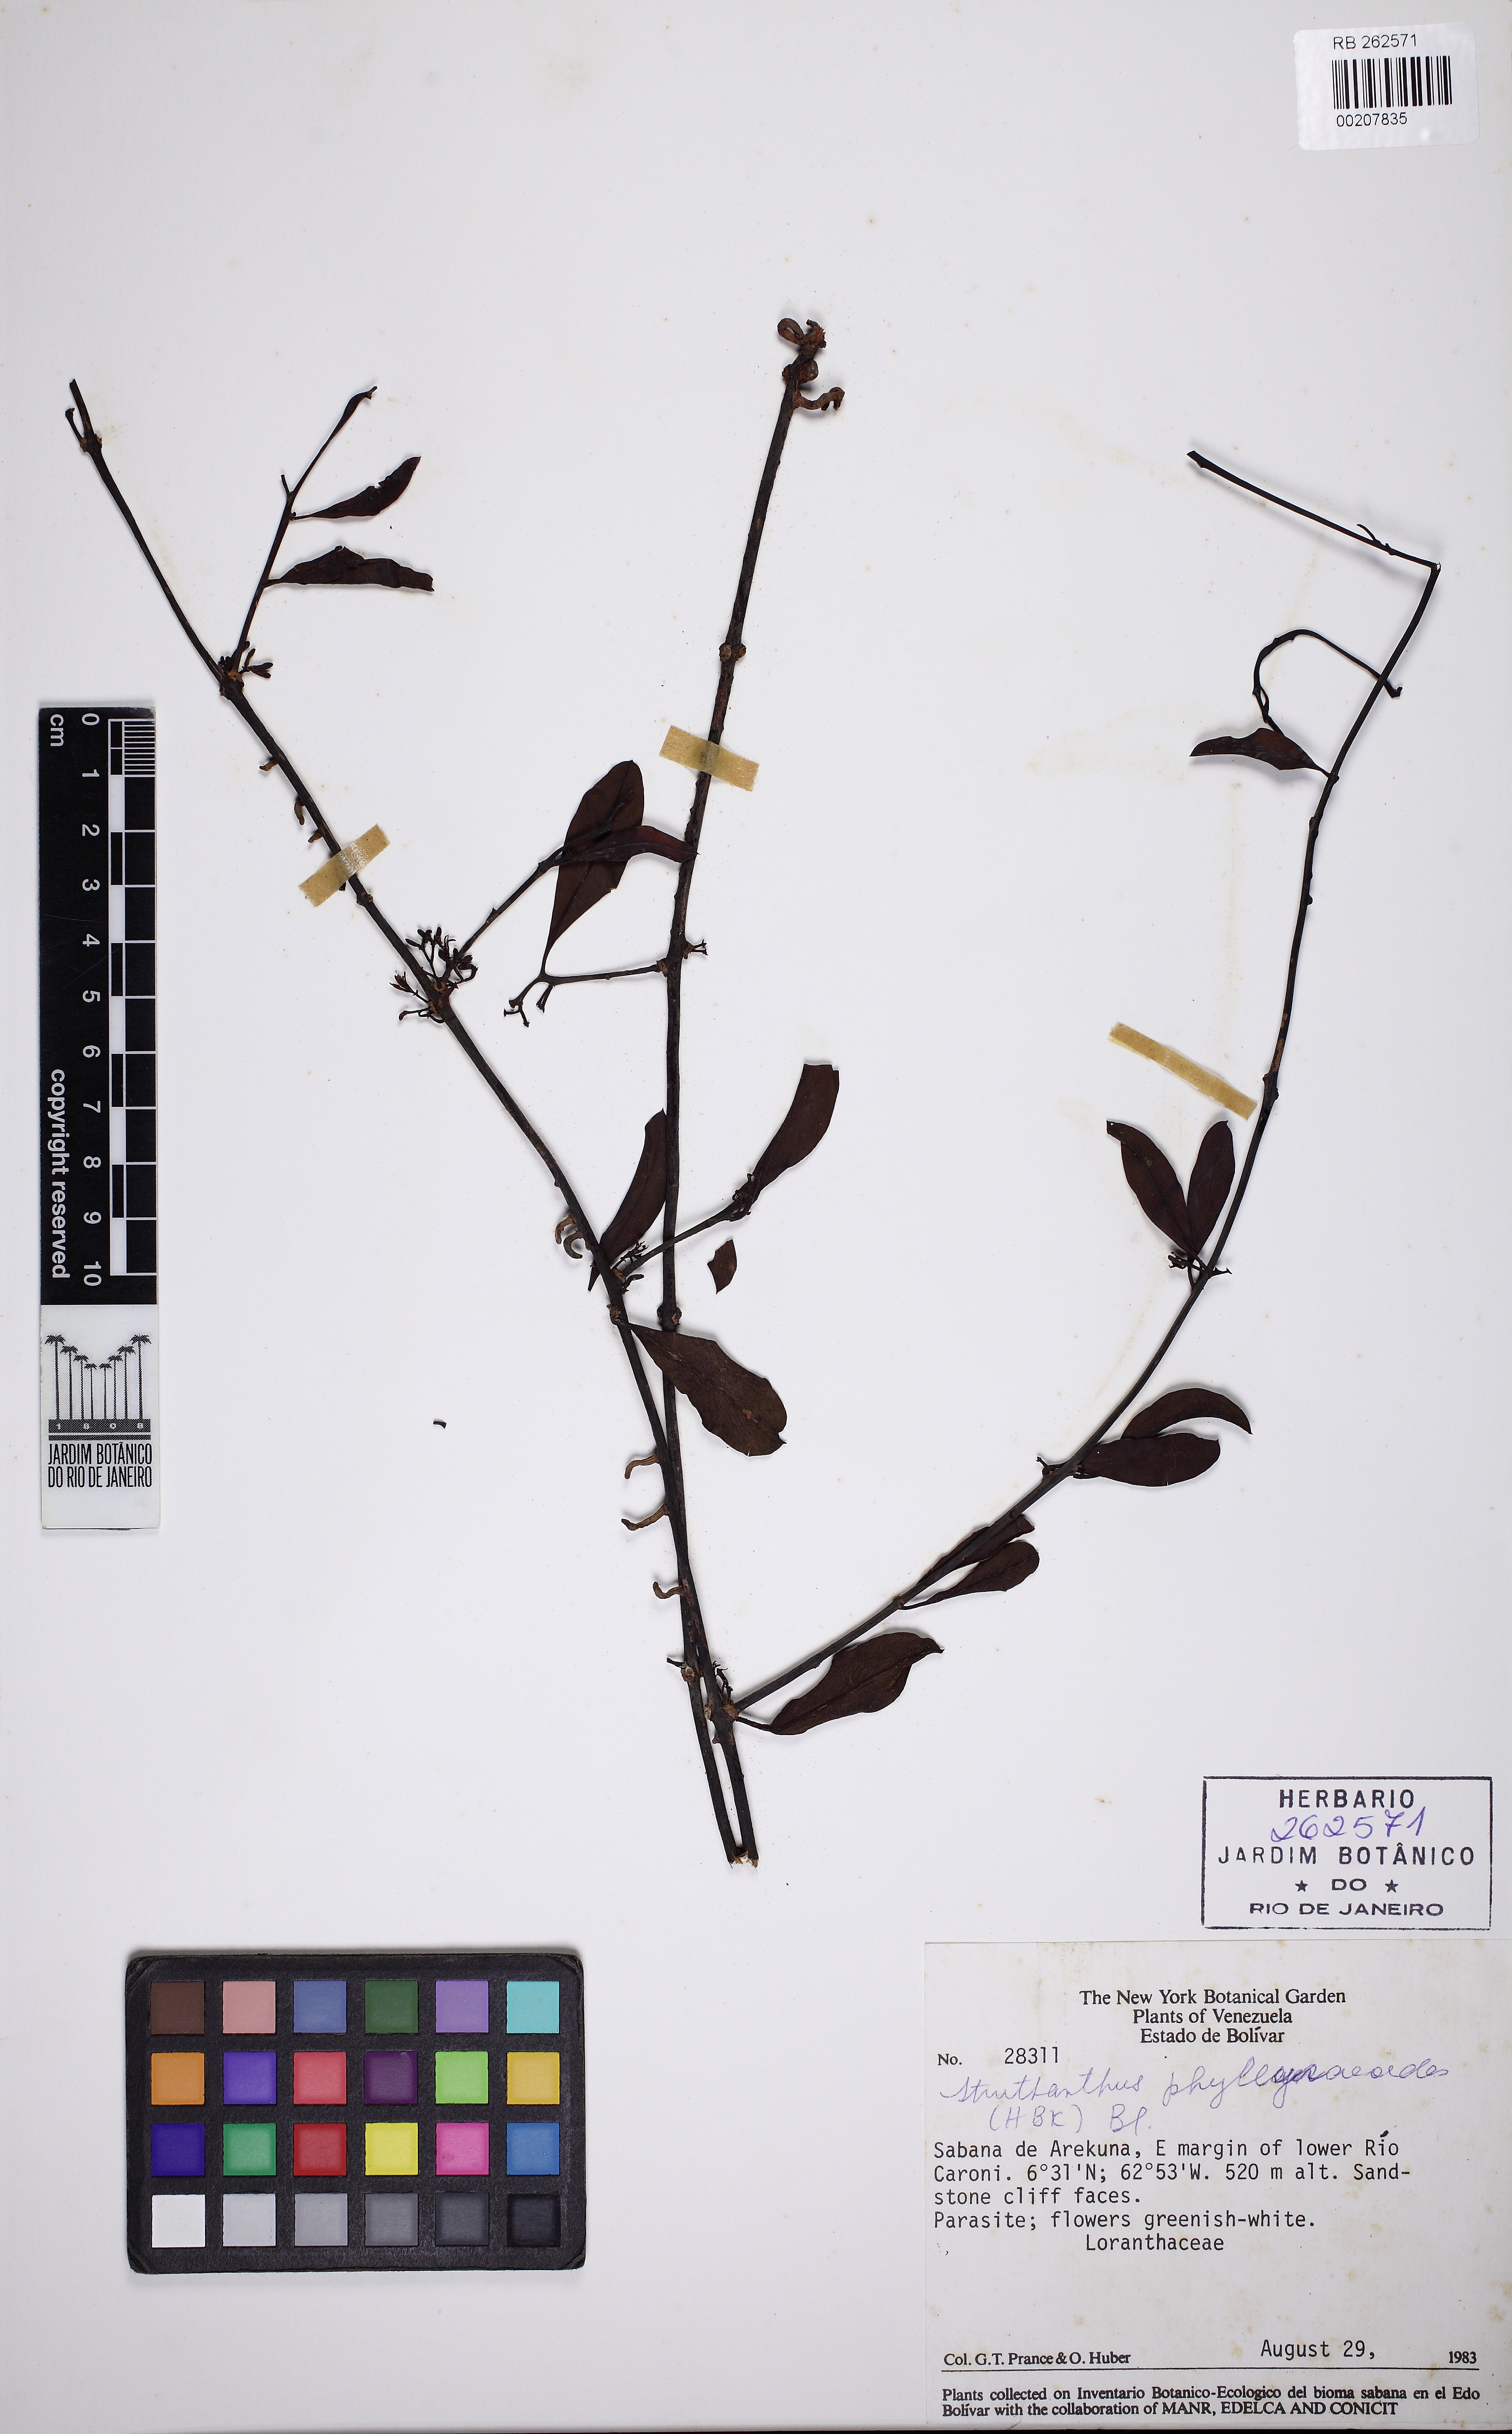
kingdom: Plantae
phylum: Tracheophyta
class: Magnoliopsida
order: Santalales
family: Loranthaceae
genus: Struthanthus
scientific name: Struthanthus phillyreoides
